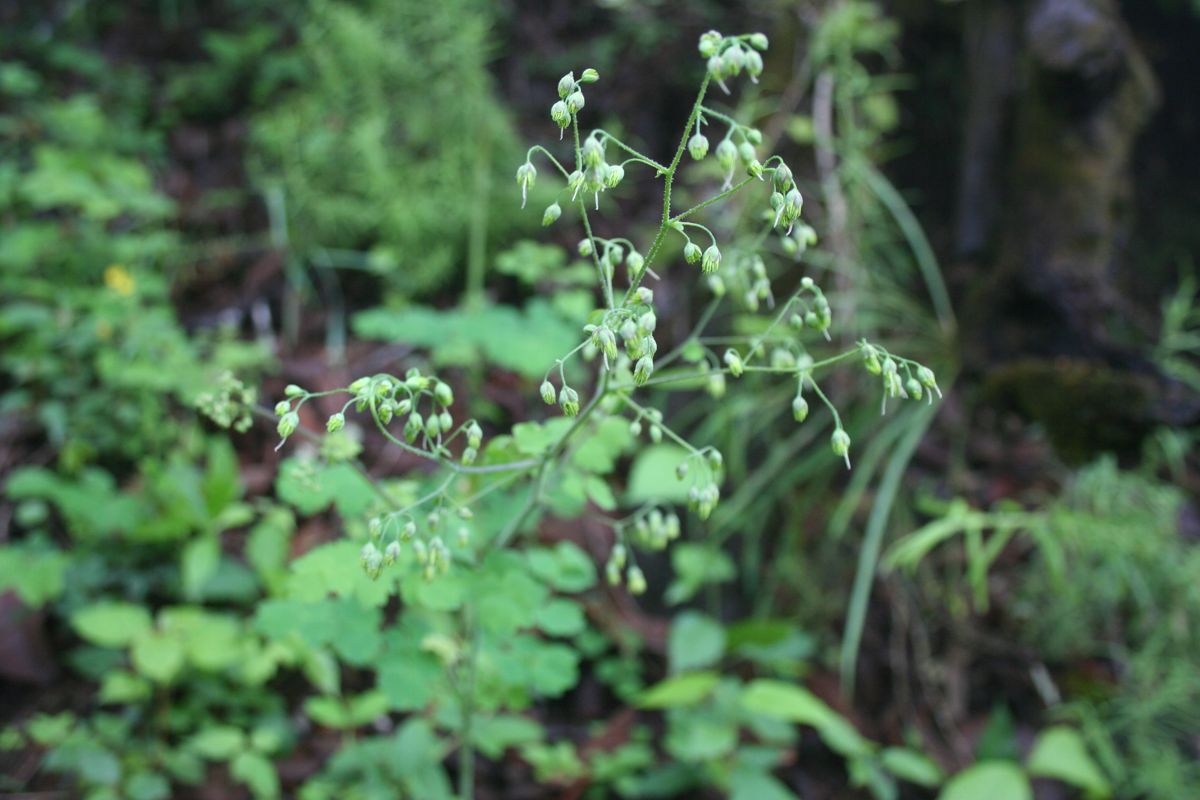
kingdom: Plantae
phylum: Tracheophyta
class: Magnoliopsida
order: Ranunculales
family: Ranunculaceae
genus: Thalictrum
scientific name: Thalictrum guatemalense
